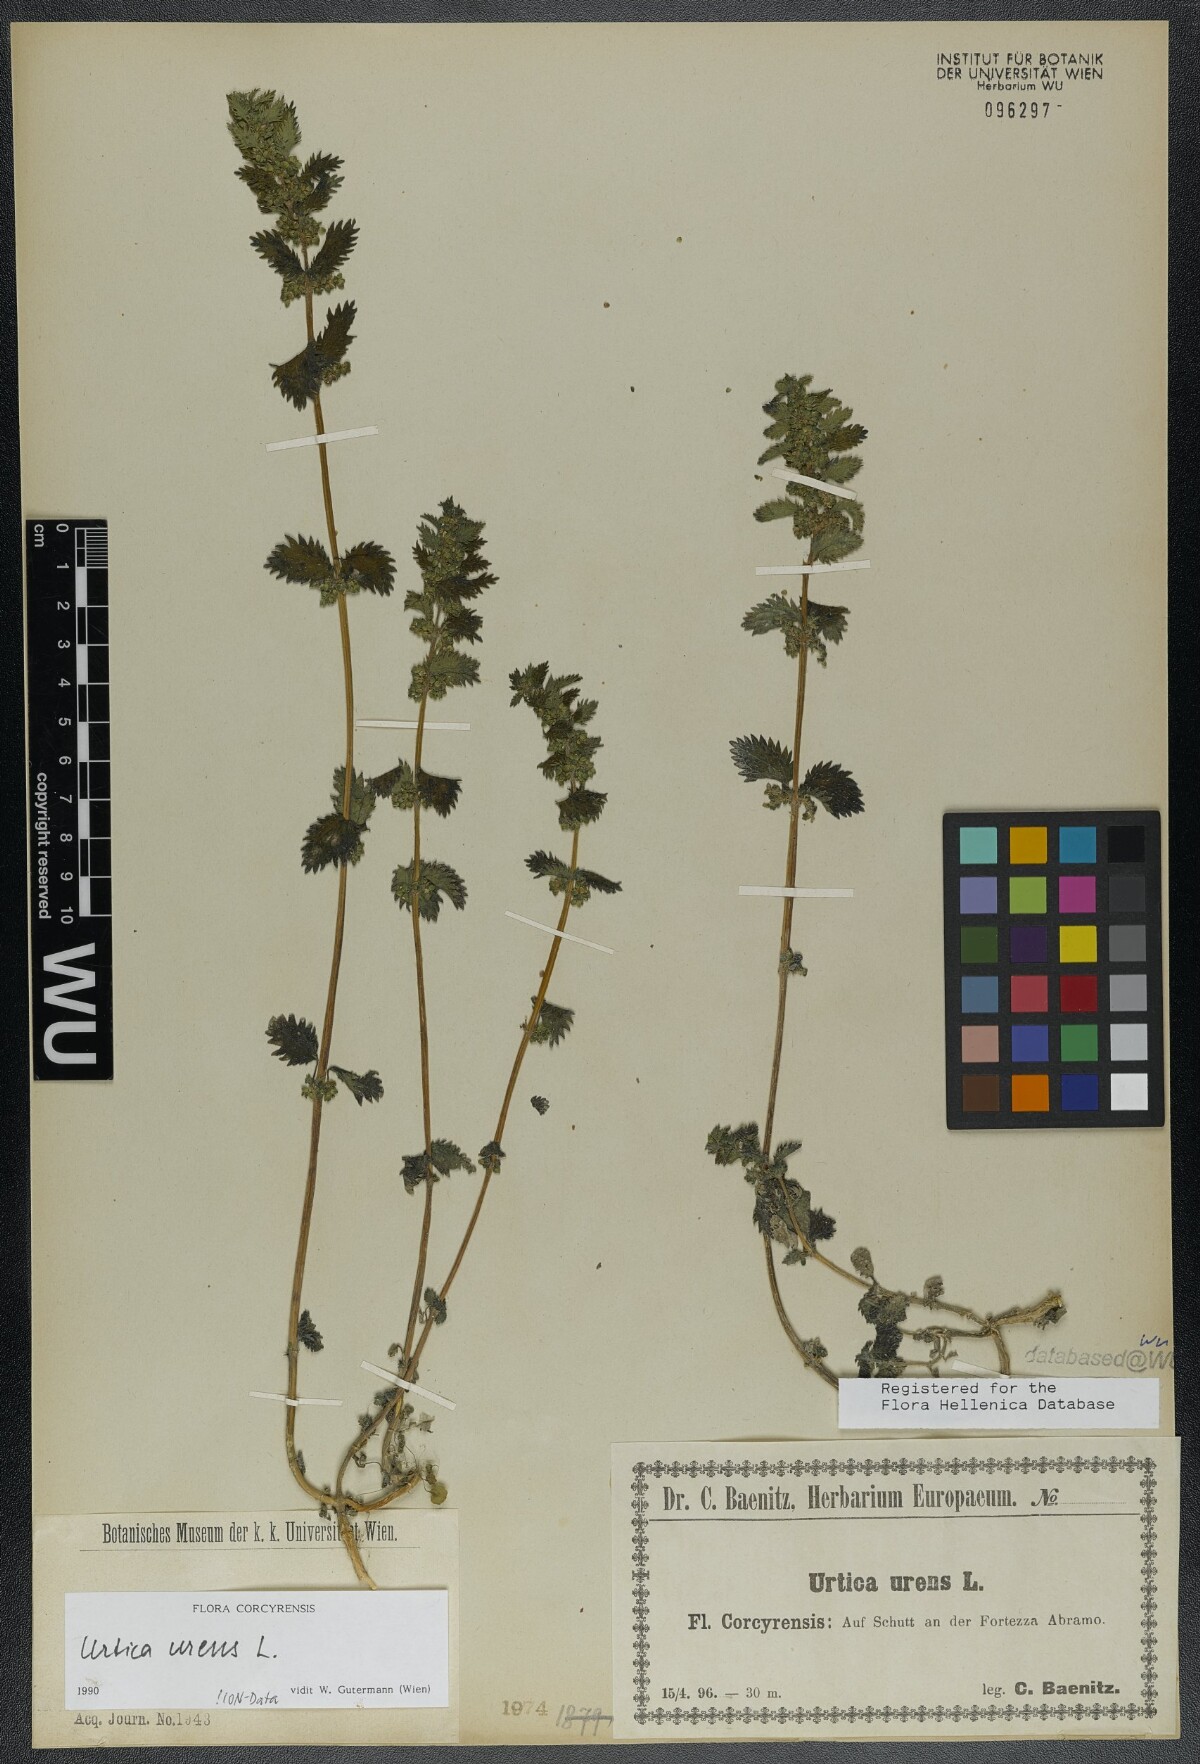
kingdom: Plantae
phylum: Tracheophyta
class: Magnoliopsida
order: Rosales
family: Urticaceae
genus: Urtica
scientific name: Urtica urens
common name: Dwarf nettle
